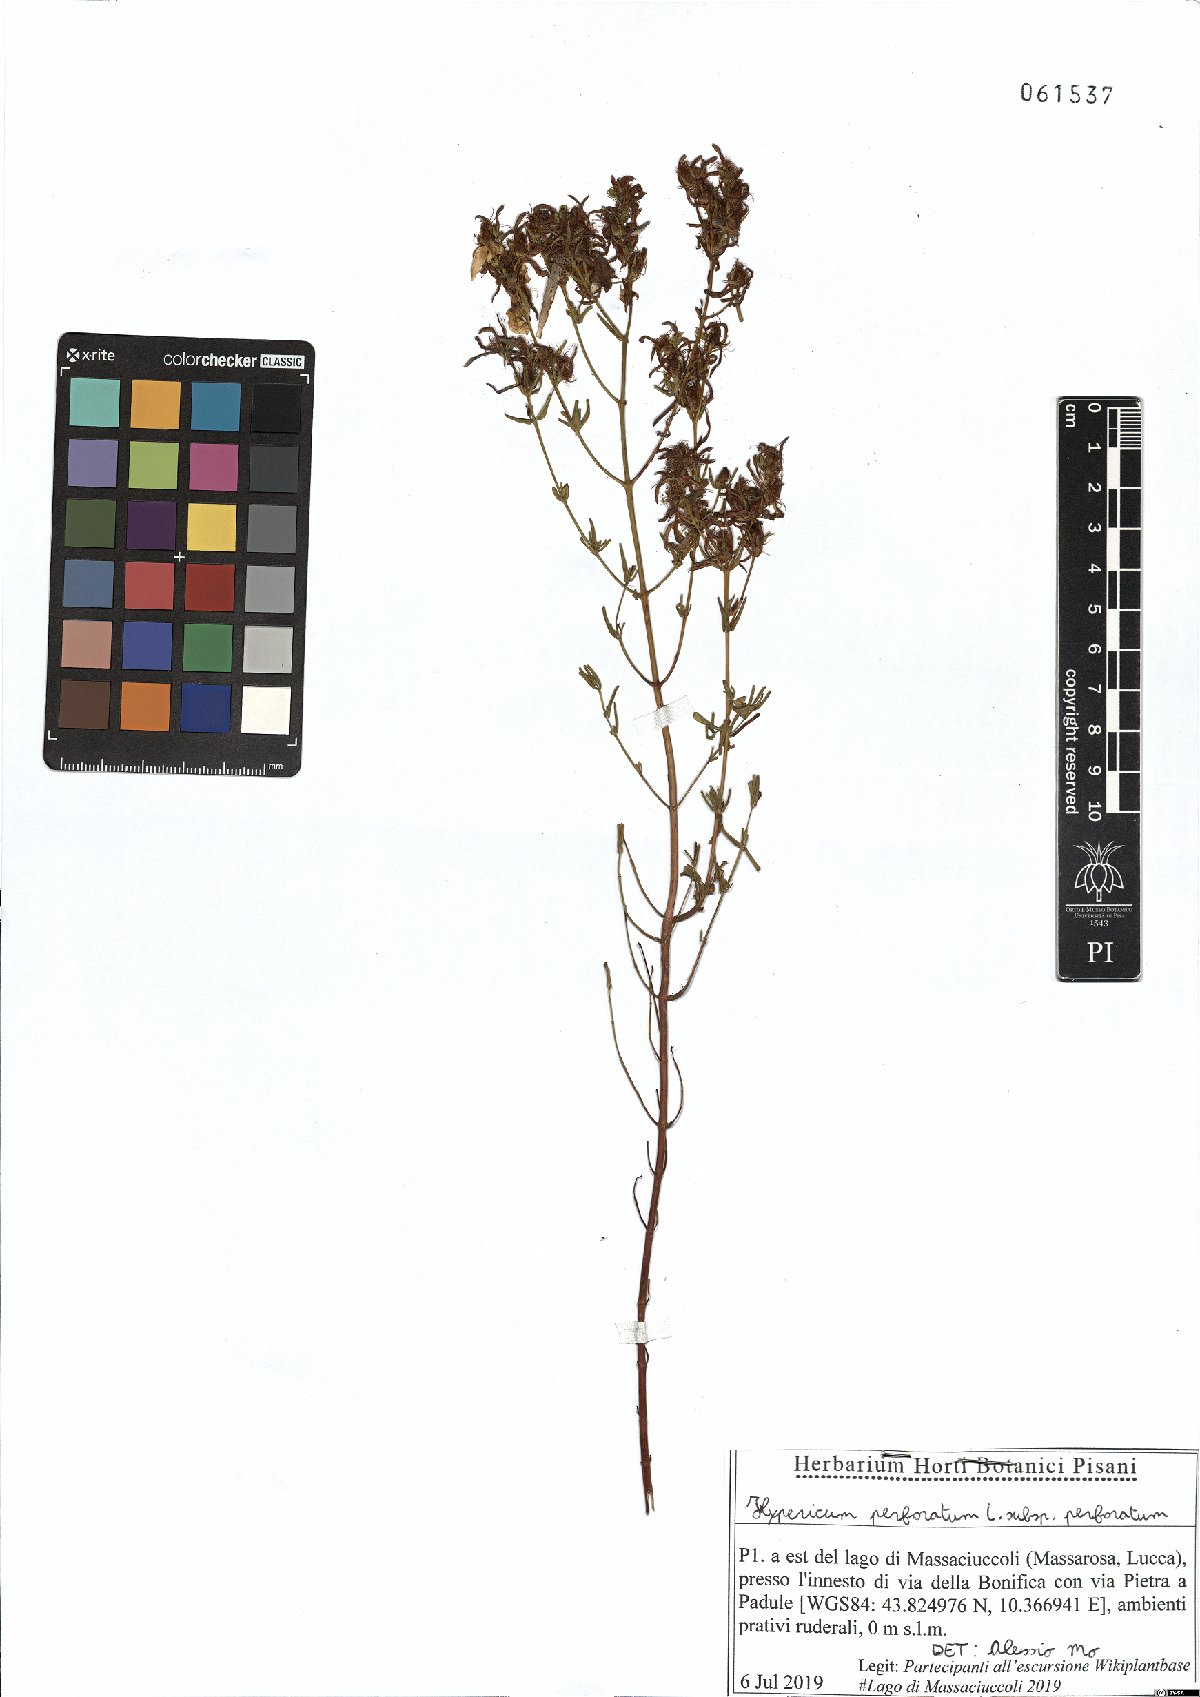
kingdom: Plantae
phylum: Tracheophyta
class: Magnoliopsida
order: Malpighiales
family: Hypericaceae
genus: Hypericum
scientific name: Hypericum perforatum
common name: Common st. johnswort
